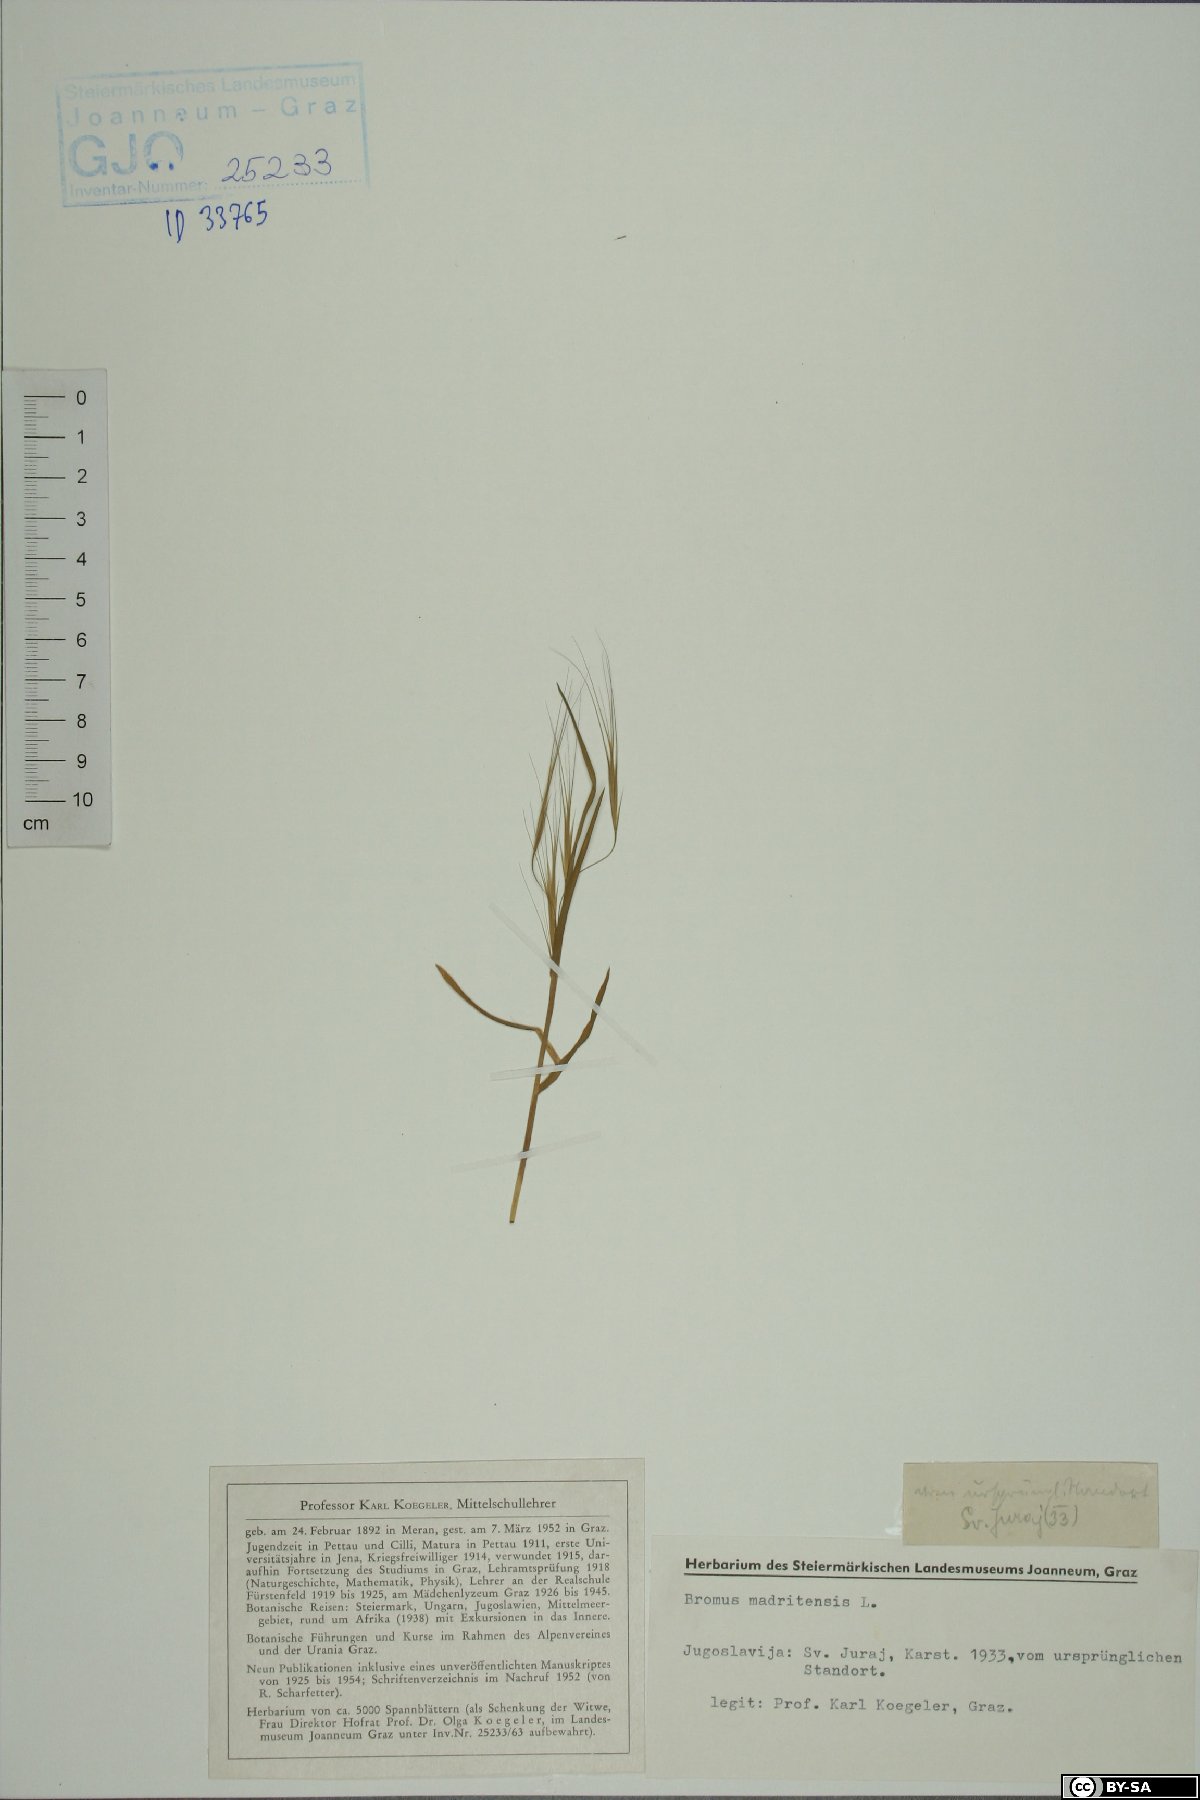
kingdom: Plantae
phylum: Tracheophyta
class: Liliopsida
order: Poales
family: Poaceae
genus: Bromus
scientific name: Bromus madritensis
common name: Compact brome
